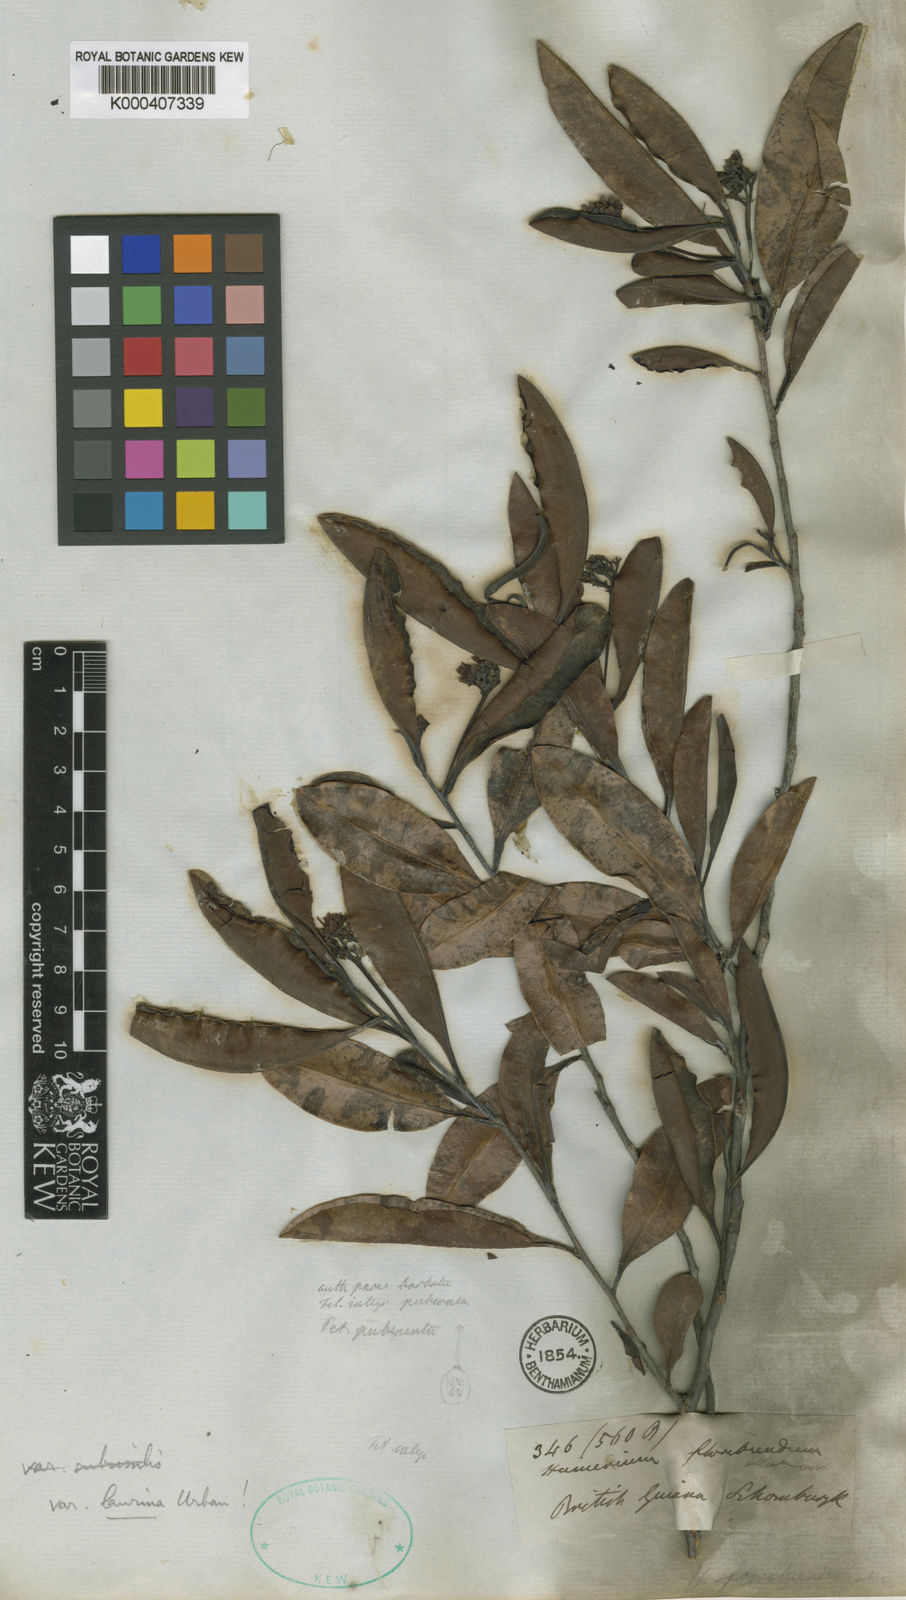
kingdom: Plantae
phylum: Tracheophyta
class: Magnoliopsida
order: Malpighiales
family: Humiriaceae
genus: Humiria
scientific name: Humiria balsamifera
